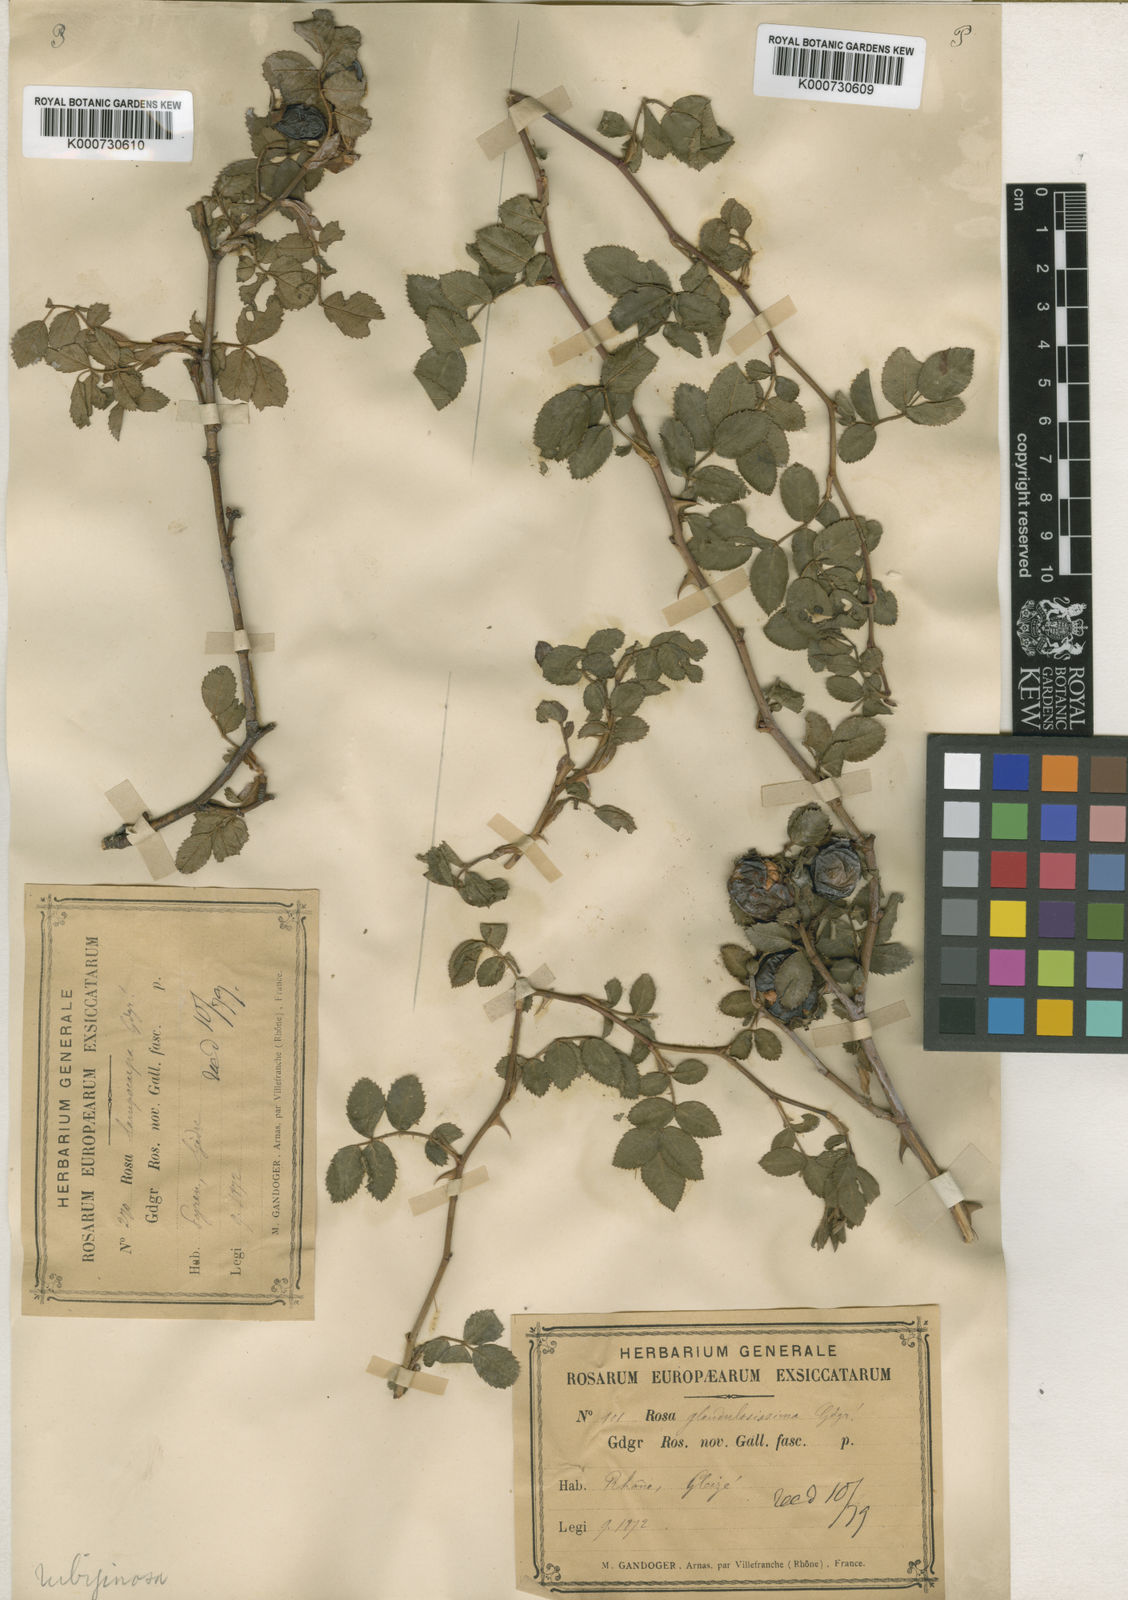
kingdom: Plantae
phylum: Tracheophyta
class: Magnoliopsida
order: Rosales
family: Rosaceae
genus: Rosa
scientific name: Rosa rubiginosa
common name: Sweet-briar
